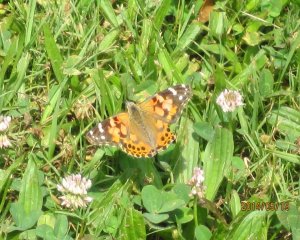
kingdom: Animalia
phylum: Arthropoda
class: Insecta
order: Lepidoptera
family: Nymphalidae
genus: Vanessa
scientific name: Vanessa cardui
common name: Painted Lady
